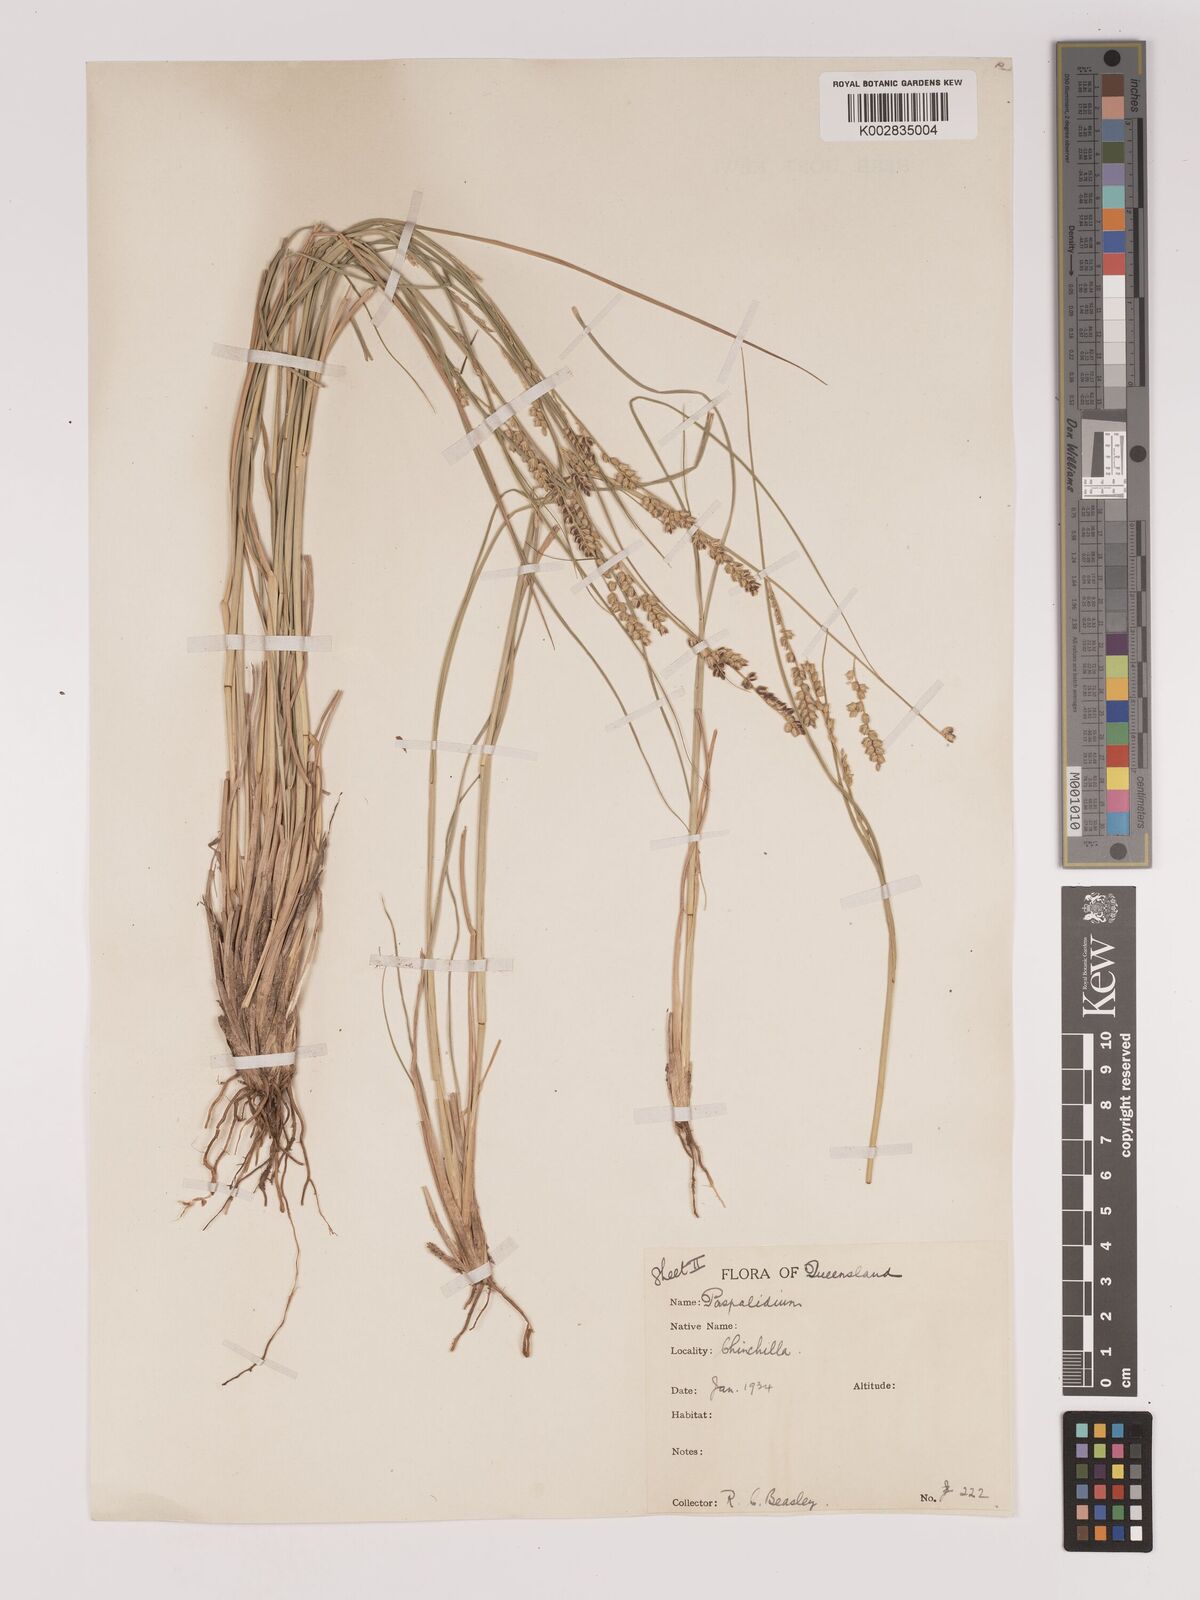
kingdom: Plantae
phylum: Tracheophyta
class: Liliopsida
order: Poales
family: Poaceae
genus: Setaria
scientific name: Setaria
